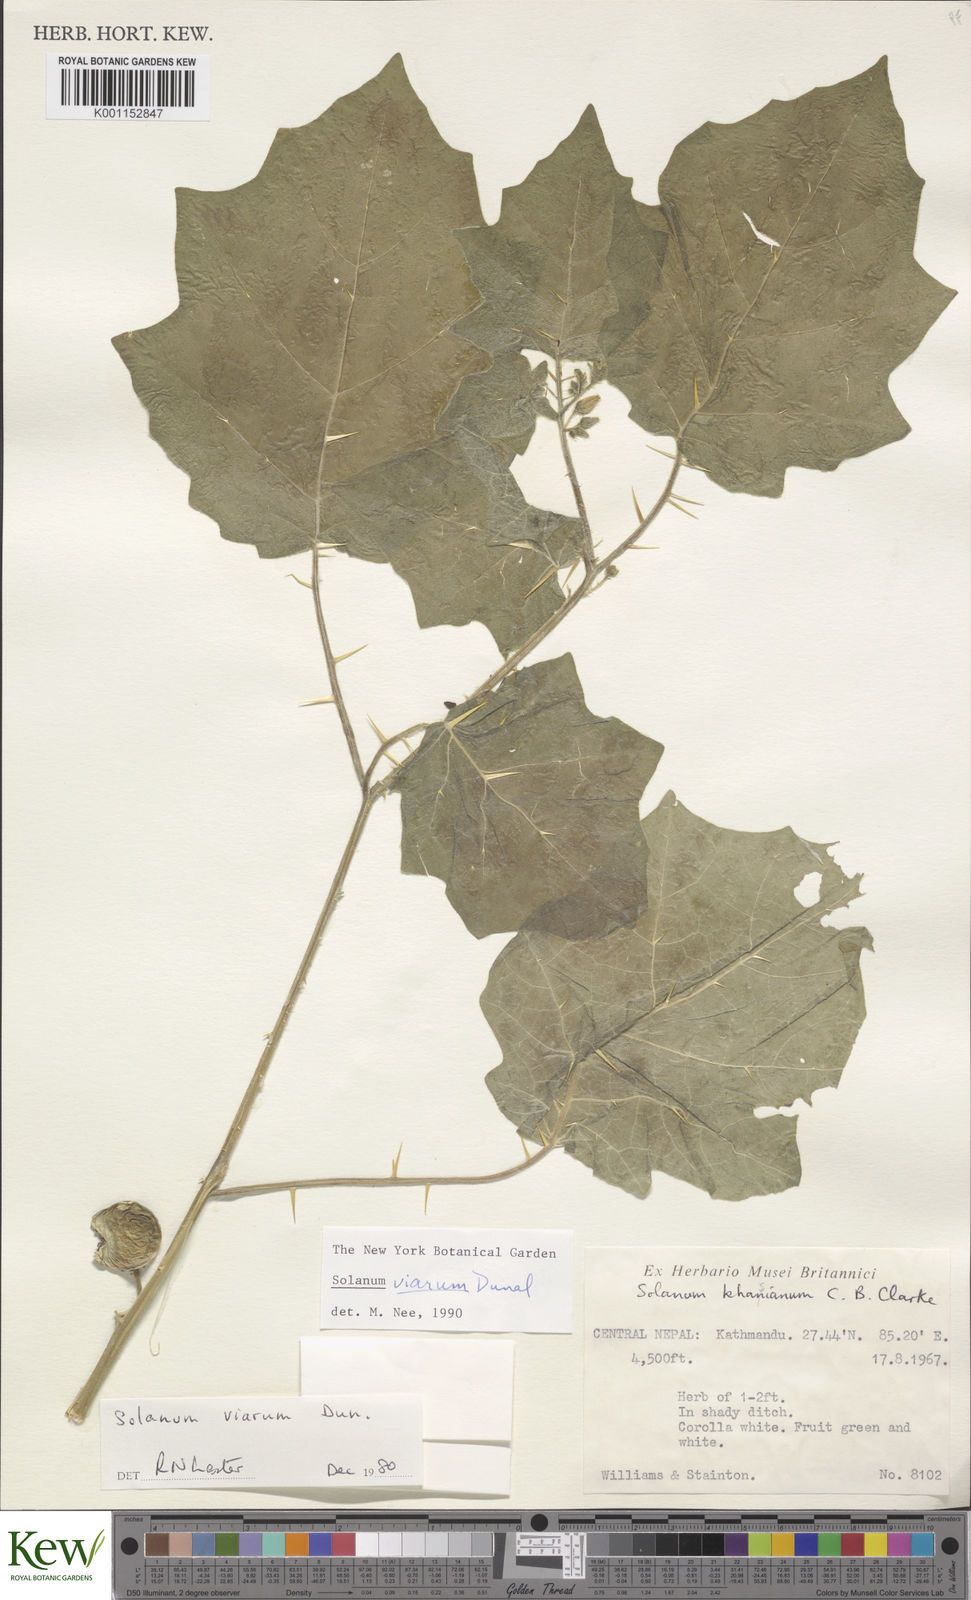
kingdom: Plantae
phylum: Tracheophyta
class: Magnoliopsida
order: Solanales
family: Solanaceae
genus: Solanum
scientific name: Solanum viarum
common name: Tropical soda apple
